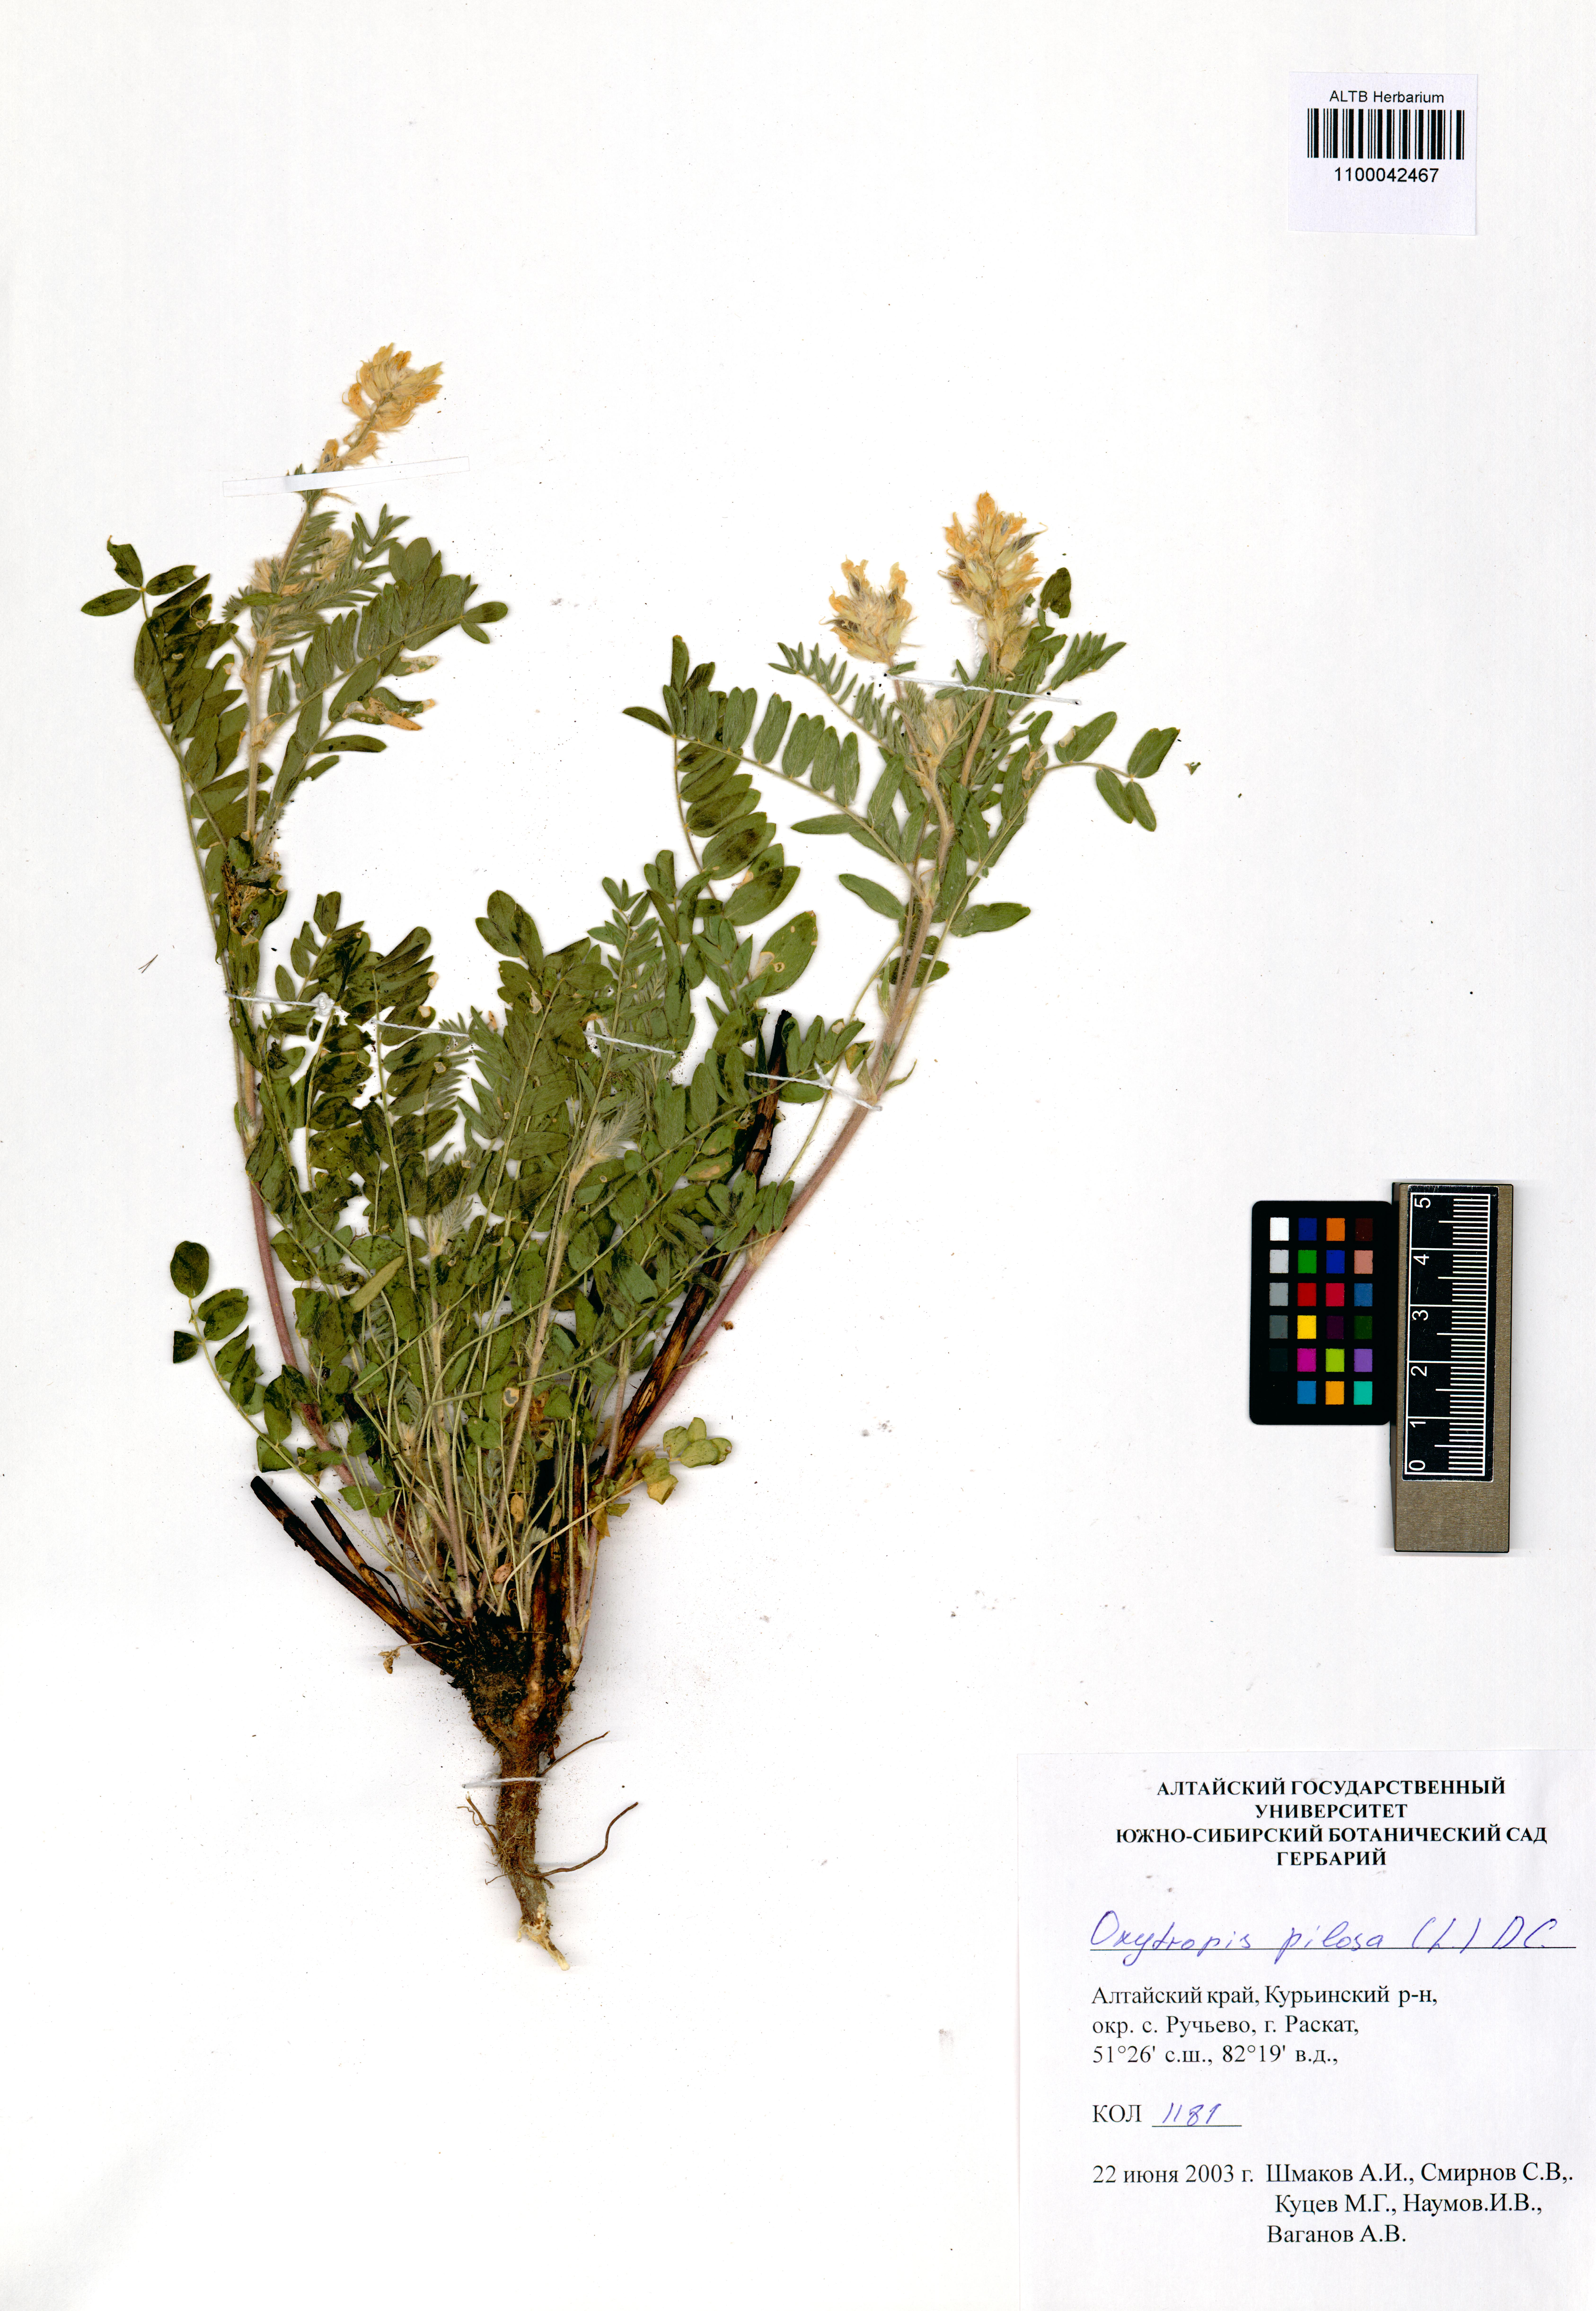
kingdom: Plantae
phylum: Tracheophyta
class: Magnoliopsida
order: Fabales
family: Fabaceae
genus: Oxytropis
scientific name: Oxytropis pilosa
